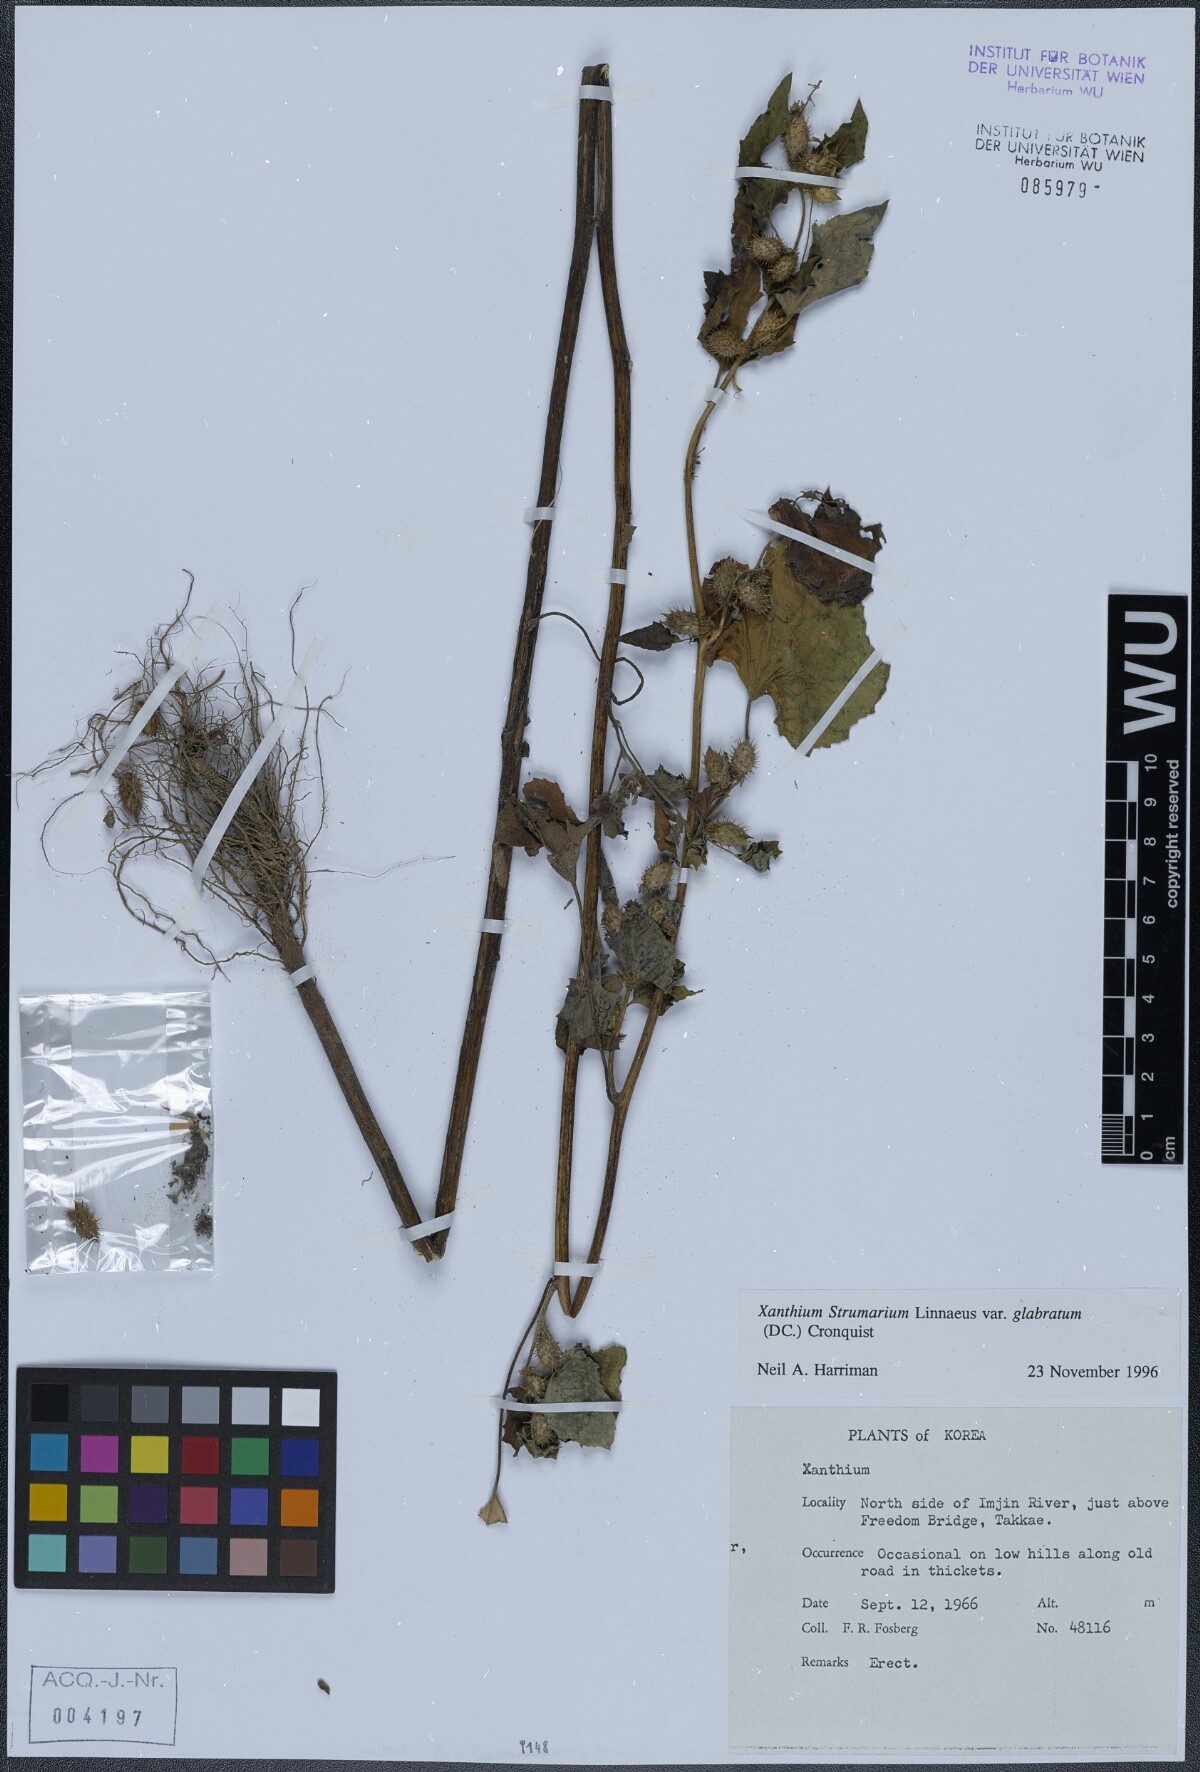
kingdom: Plantae
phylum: Tracheophyta
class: Magnoliopsida
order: Asterales
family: Asteraceae
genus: Xanthium
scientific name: Xanthium strumarium
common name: Rough cocklebur
